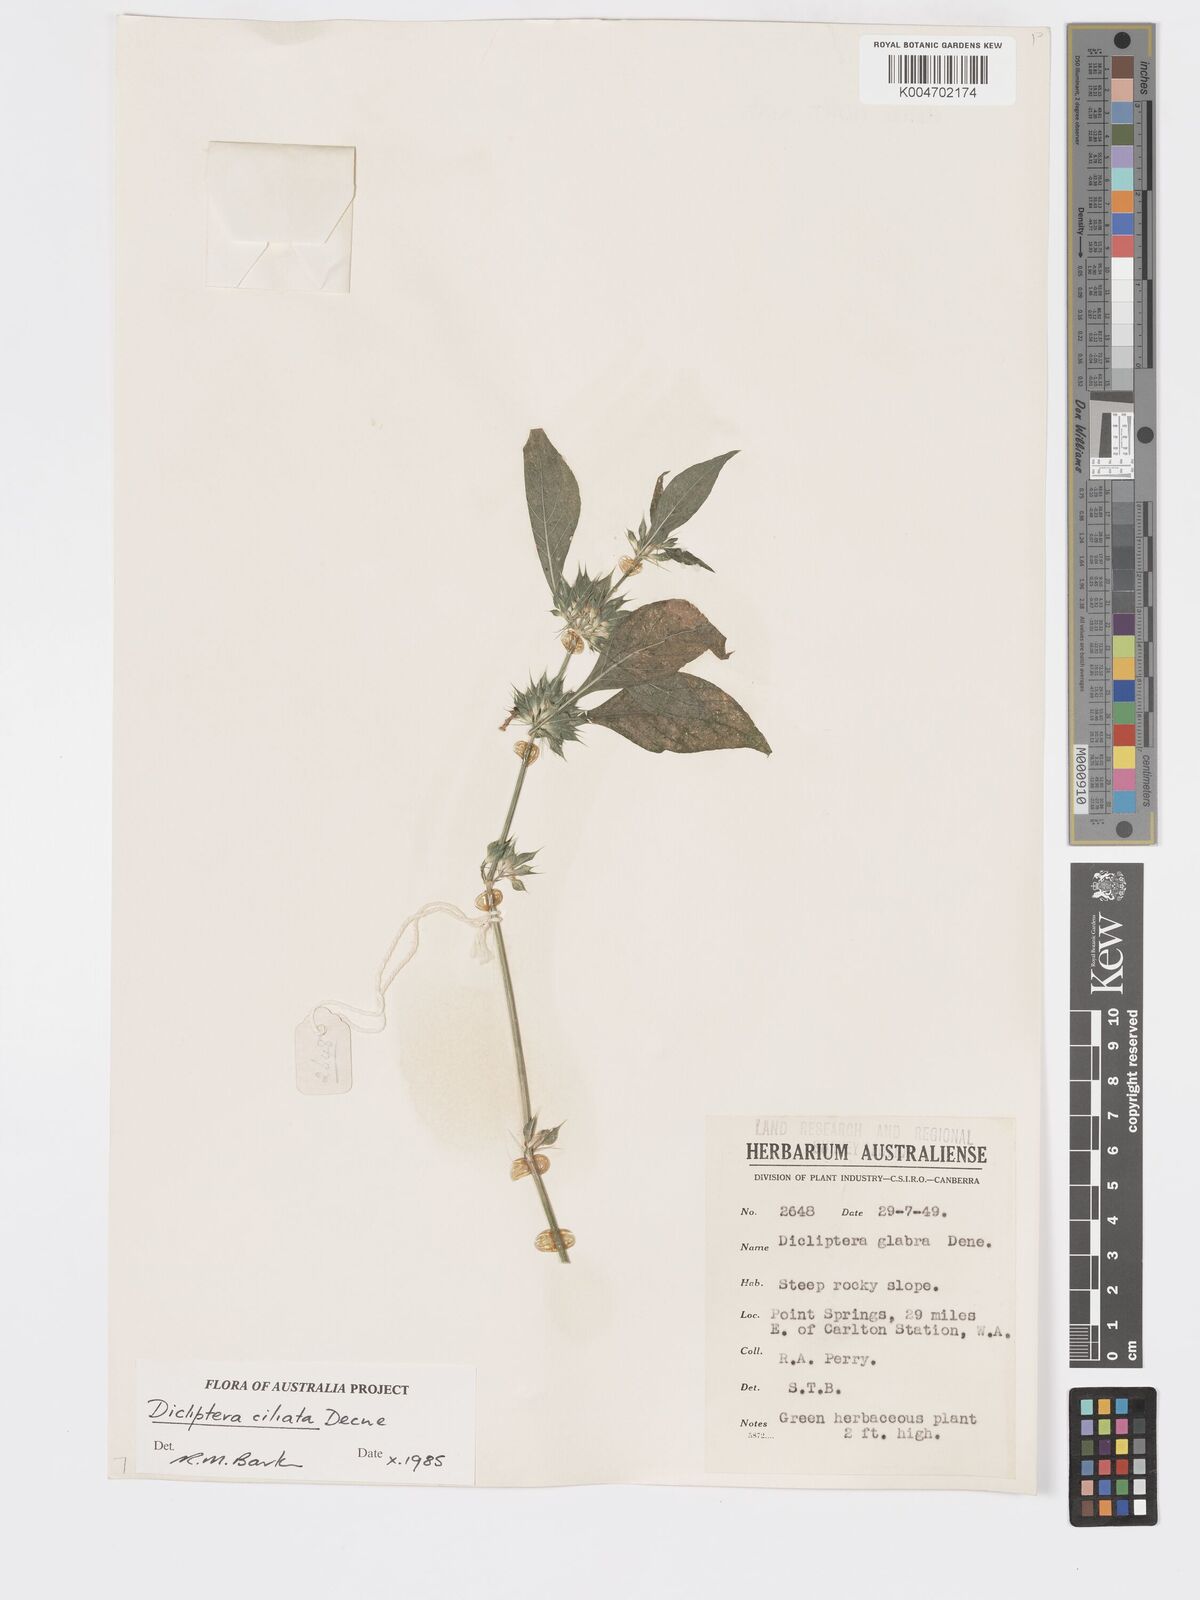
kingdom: Plantae
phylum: Tracheophyta
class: Magnoliopsida
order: Lamiales
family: Acanthaceae
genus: Dicliptera
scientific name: Dicliptera
